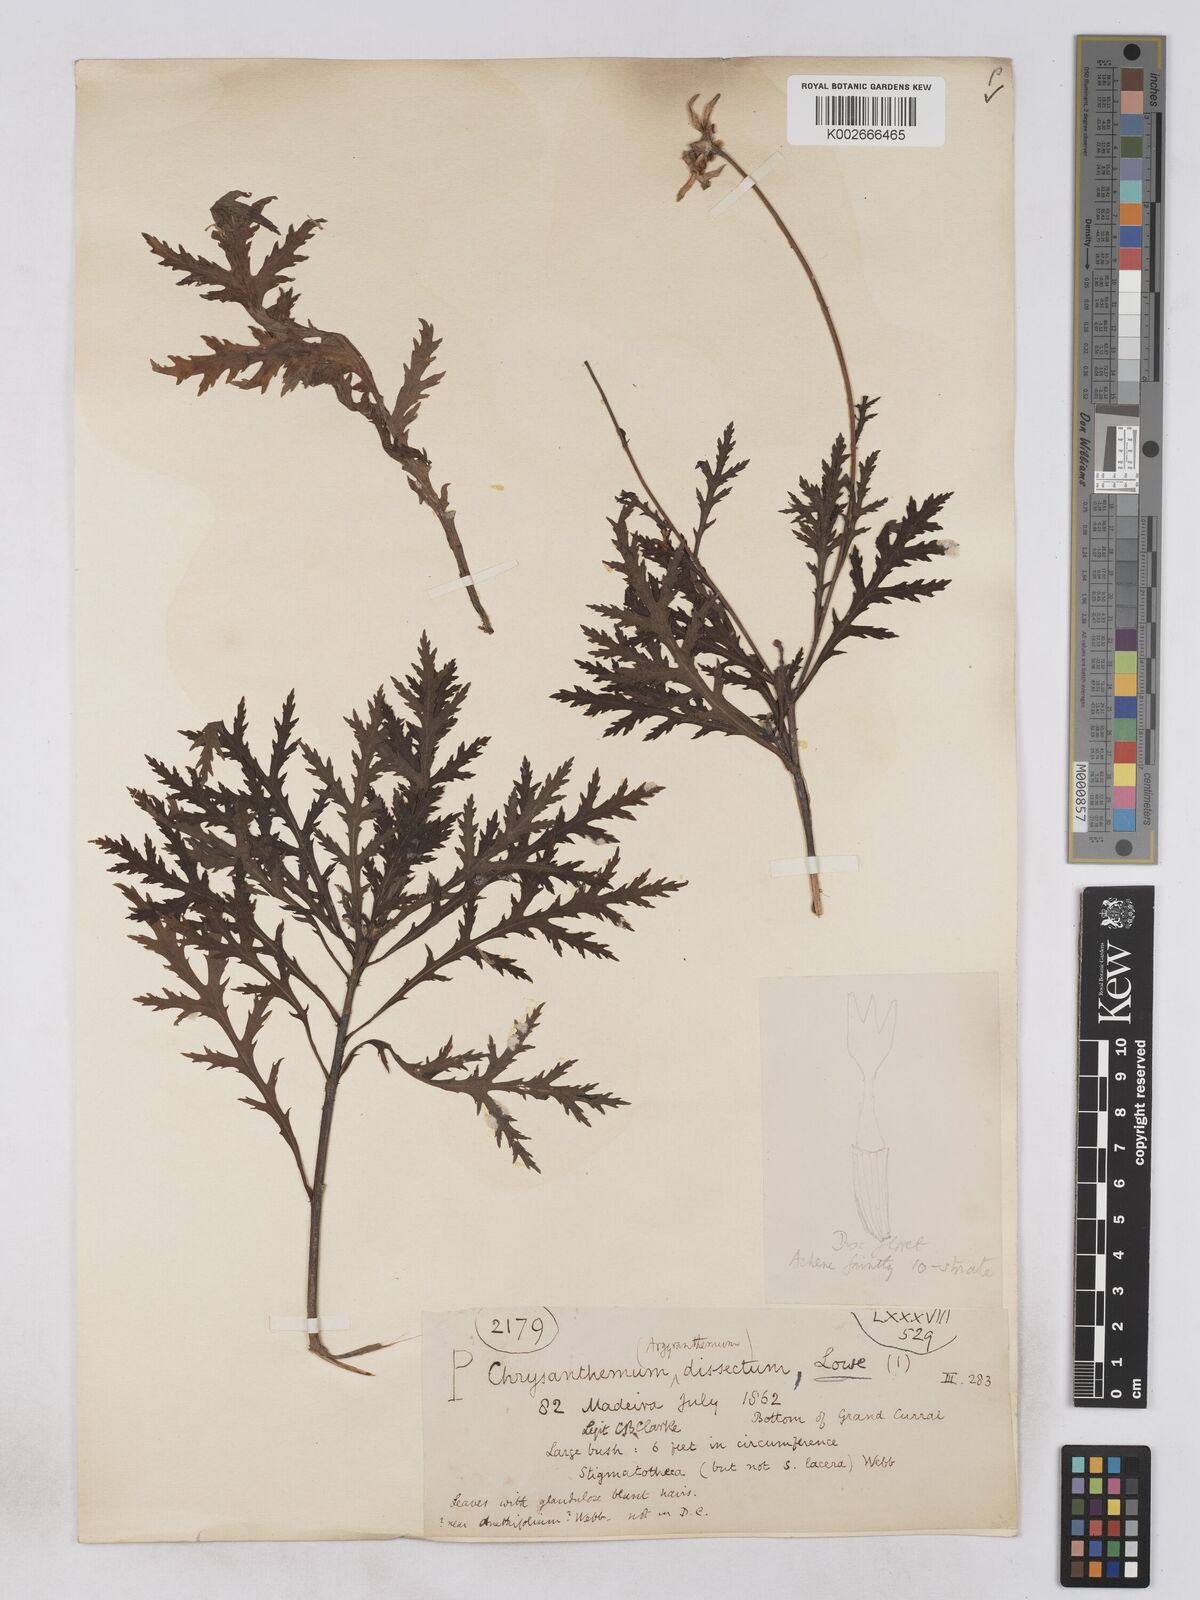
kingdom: Plantae
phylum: Tracheophyta
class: Magnoliopsida
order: Asterales
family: Asteraceae
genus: Argyranthemum
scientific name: Argyranthemum dissectum
